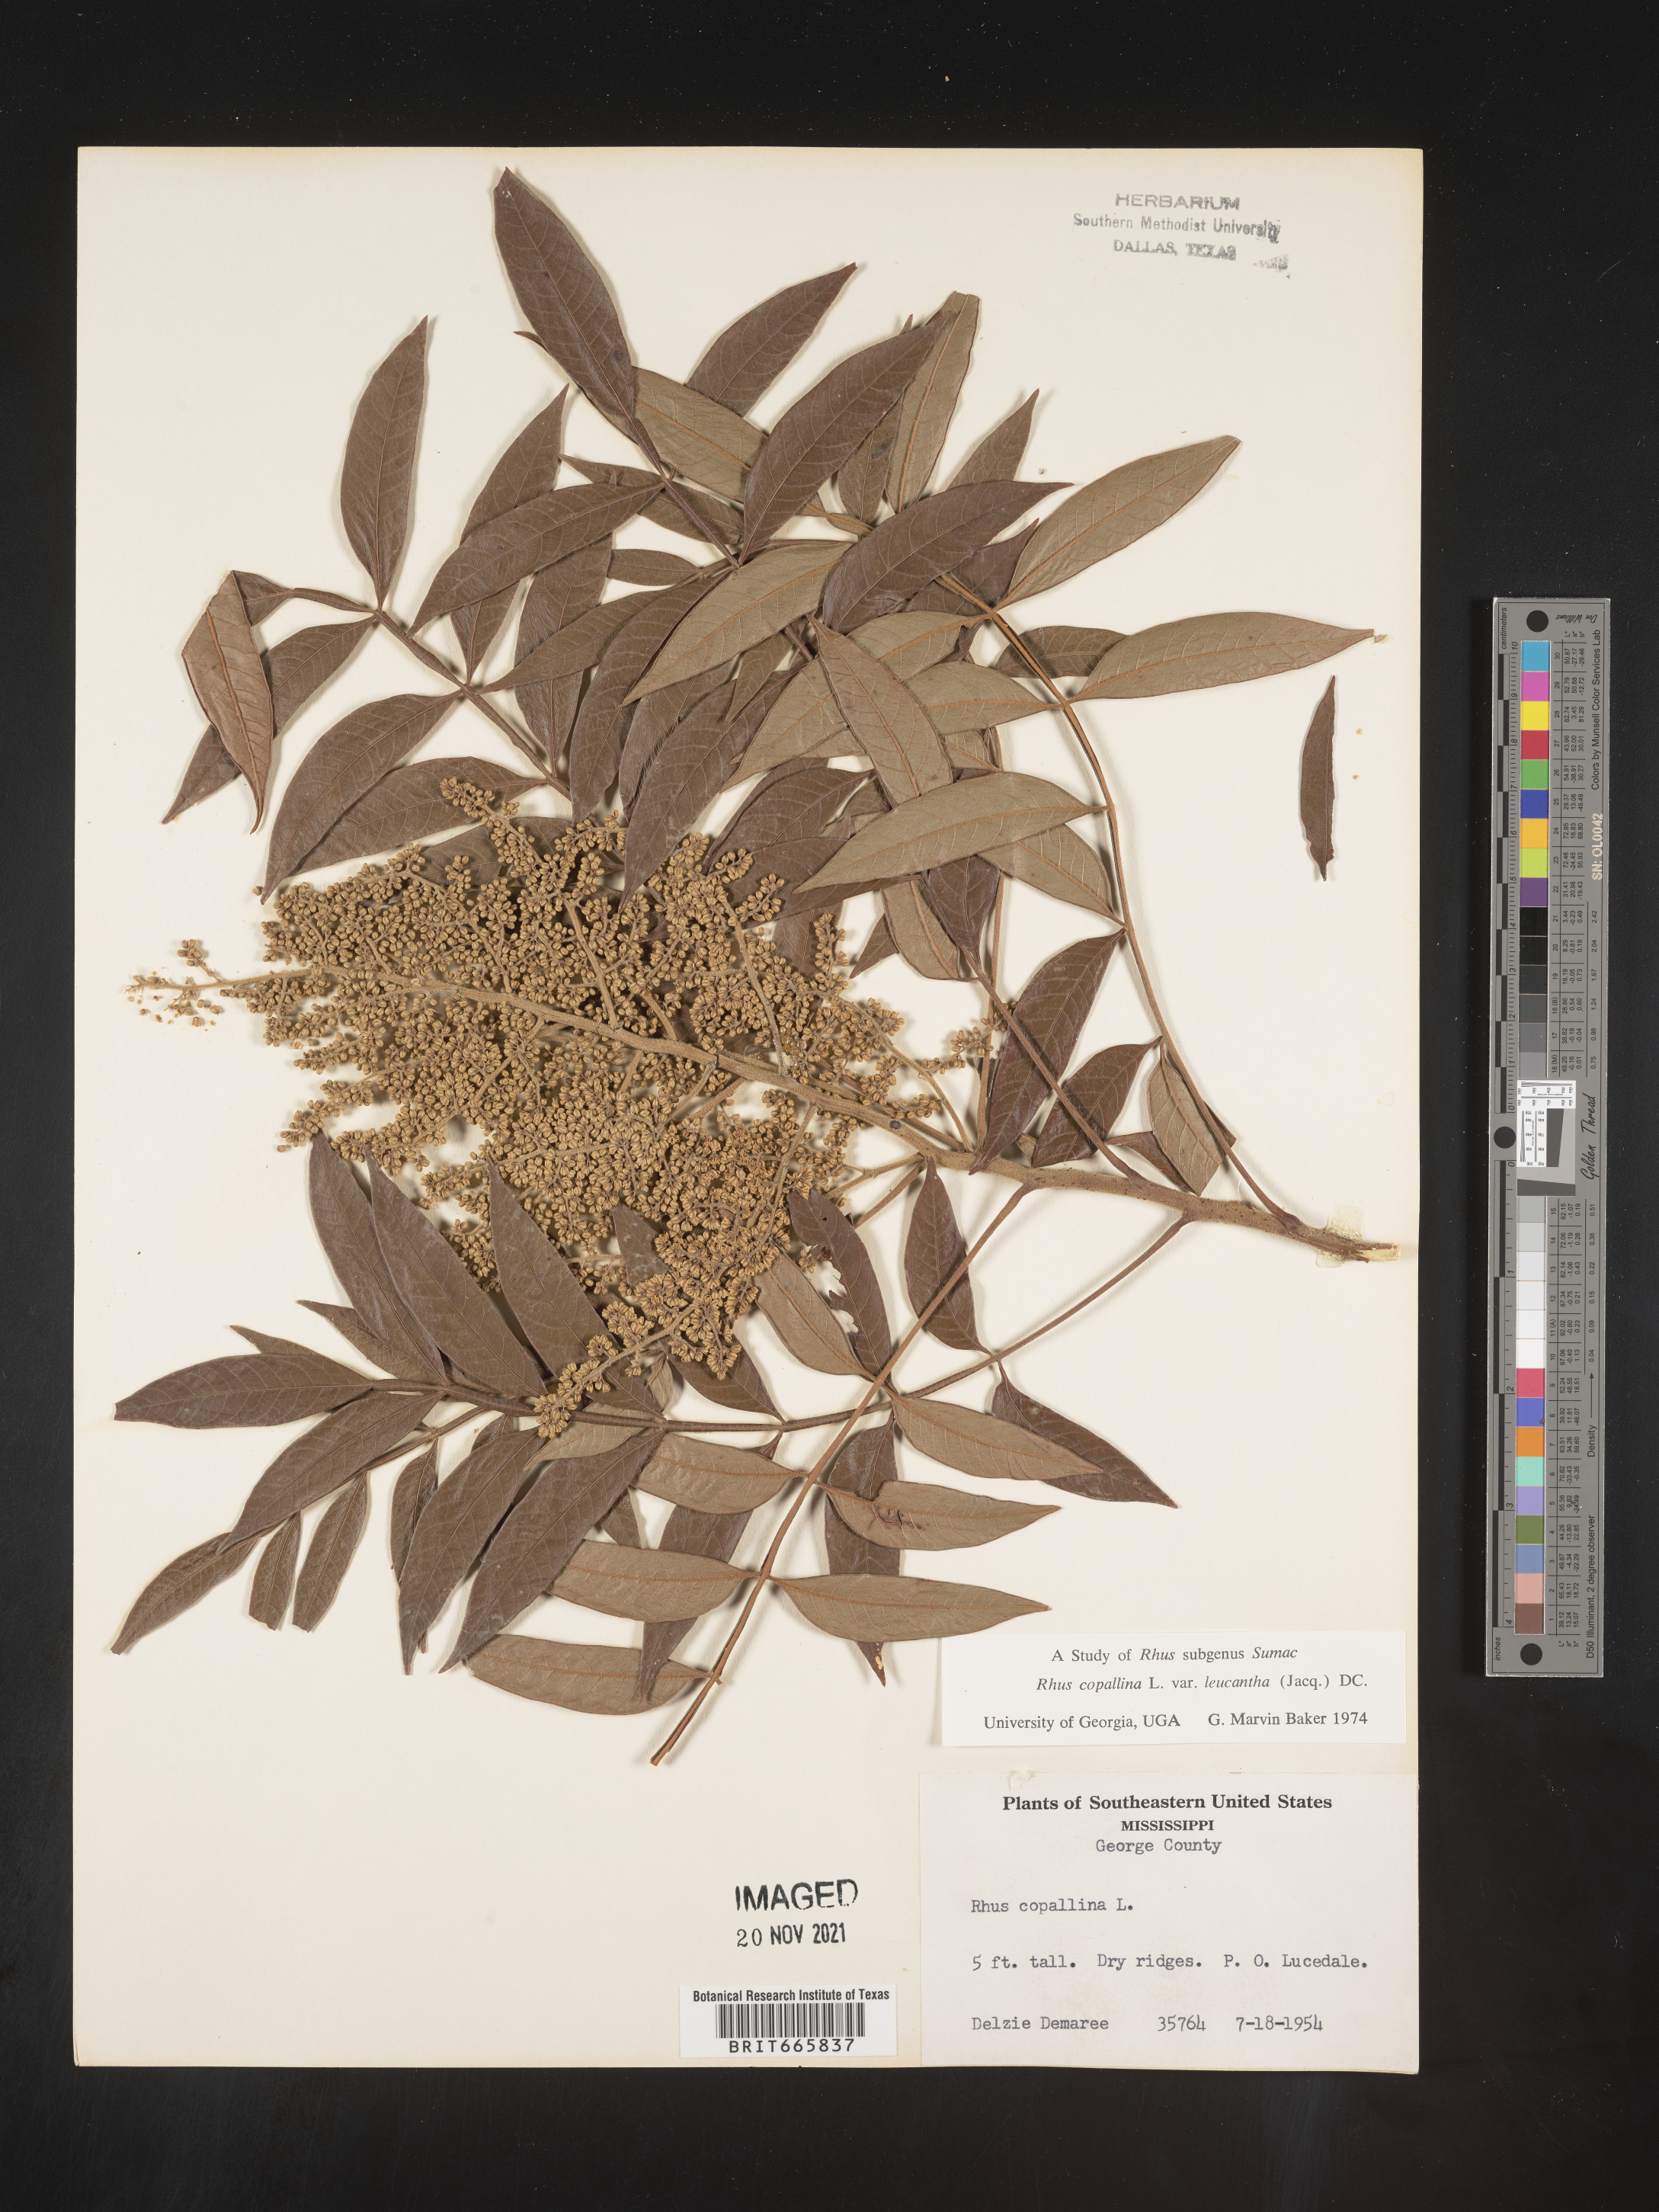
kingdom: Plantae
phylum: Tracheophyta
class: Magnoliopsida
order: Sapindales
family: Anacardiaceae
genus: Rhus
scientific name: Rhus copallina
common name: Shining sumac
